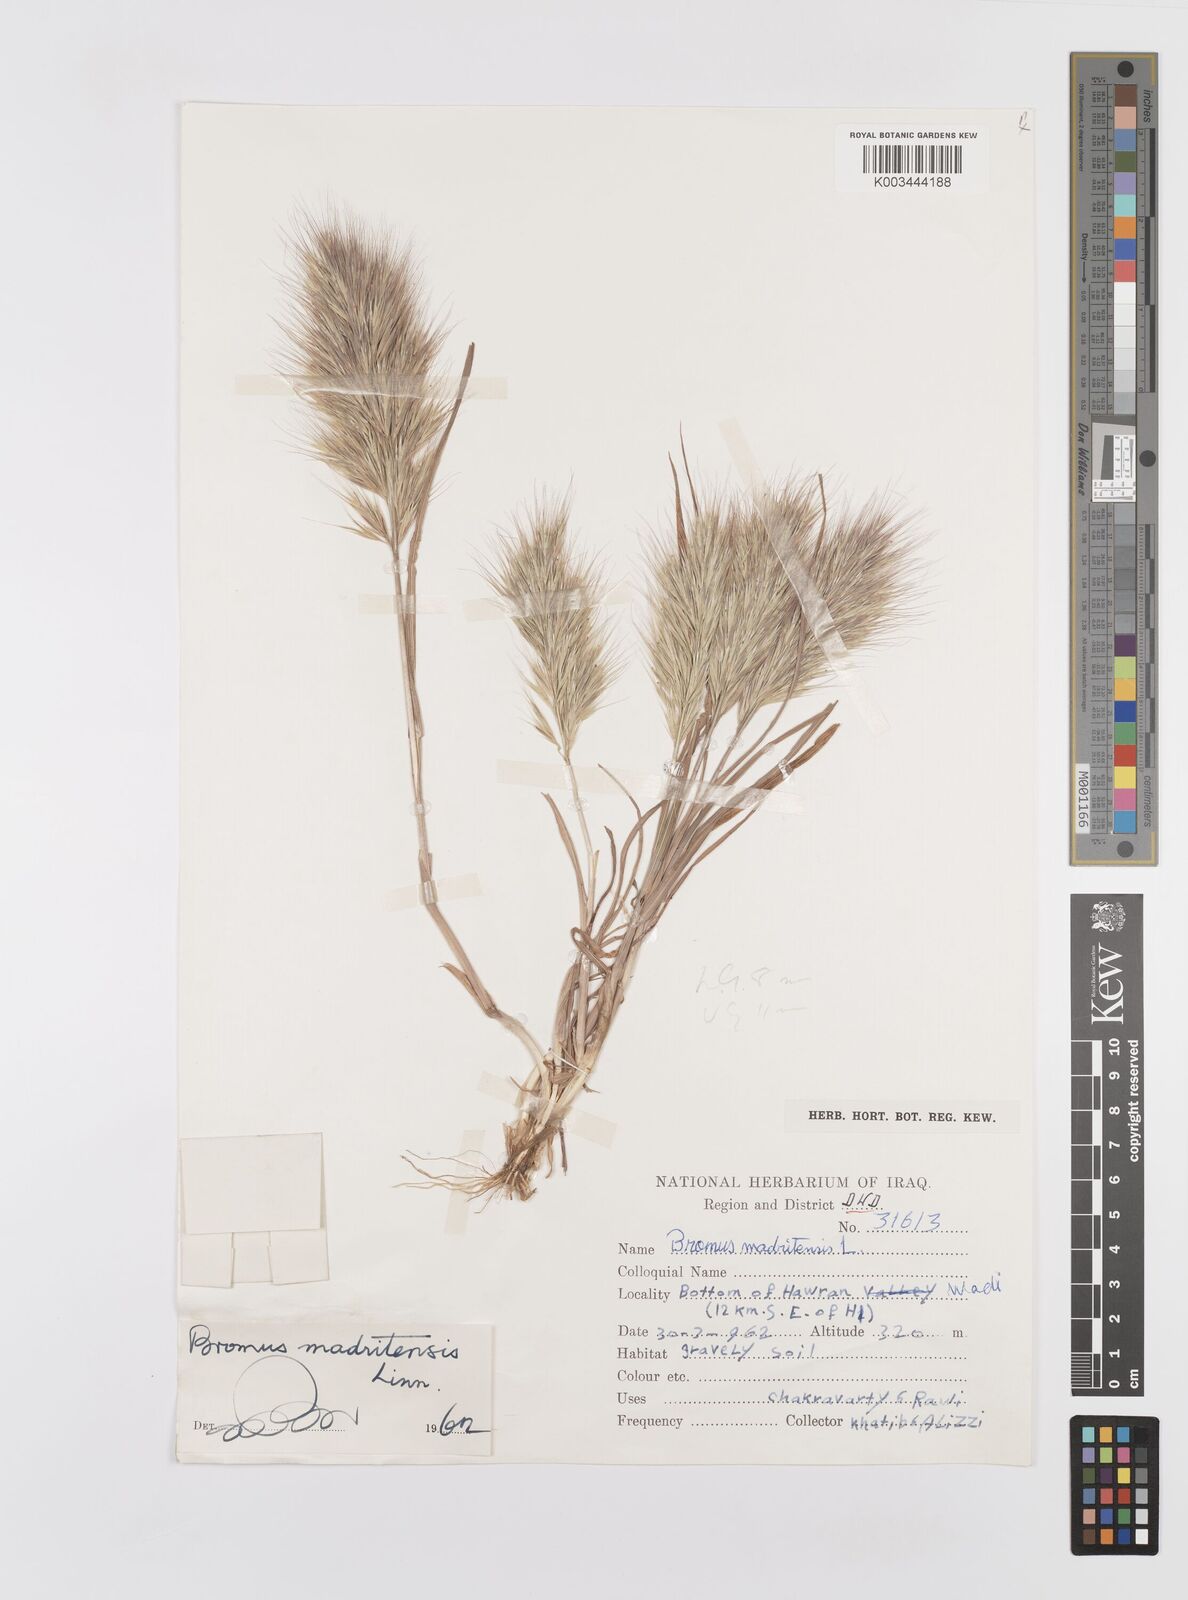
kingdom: Plantae
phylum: Tracheophyta
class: Liliopsida
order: Poales
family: Poaceae
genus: Bromus
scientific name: Bromus madritensis
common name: Compact brome
